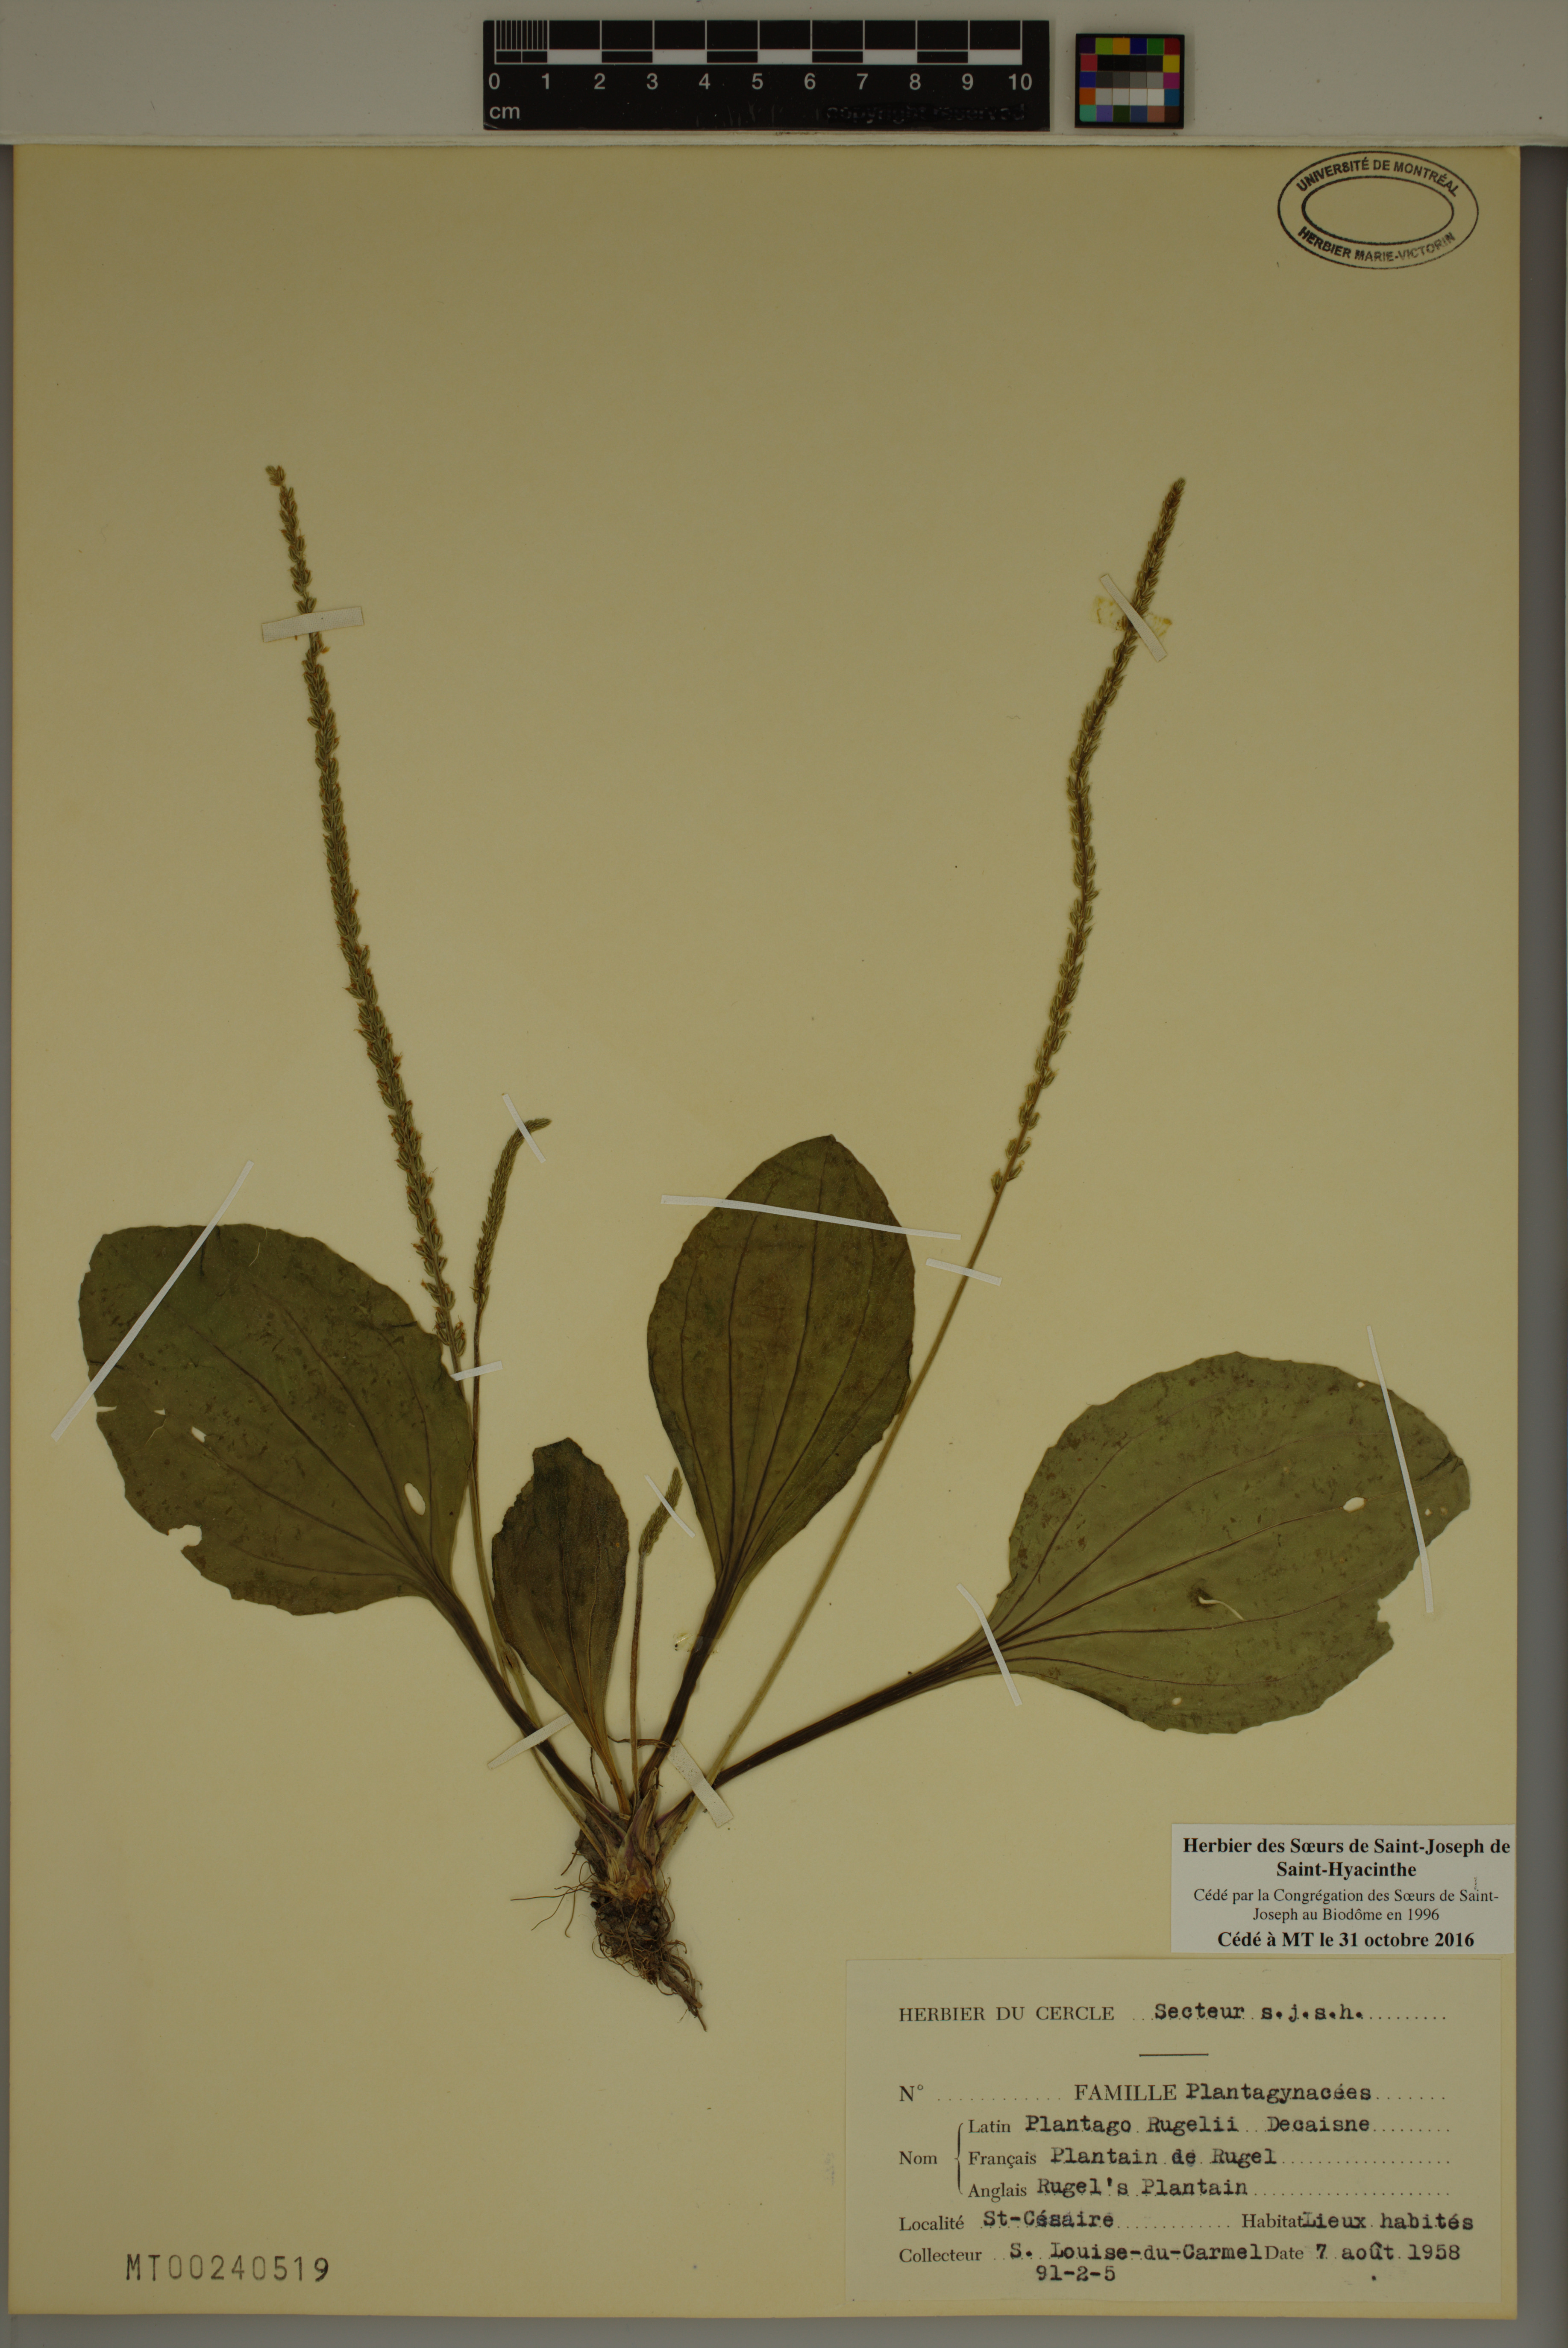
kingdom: Plantae
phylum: Tracheophyta
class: Magnoliopsida
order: Lamiales
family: Plantaginaceae
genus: Plantago
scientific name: Plantago rugelii
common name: American plantain
